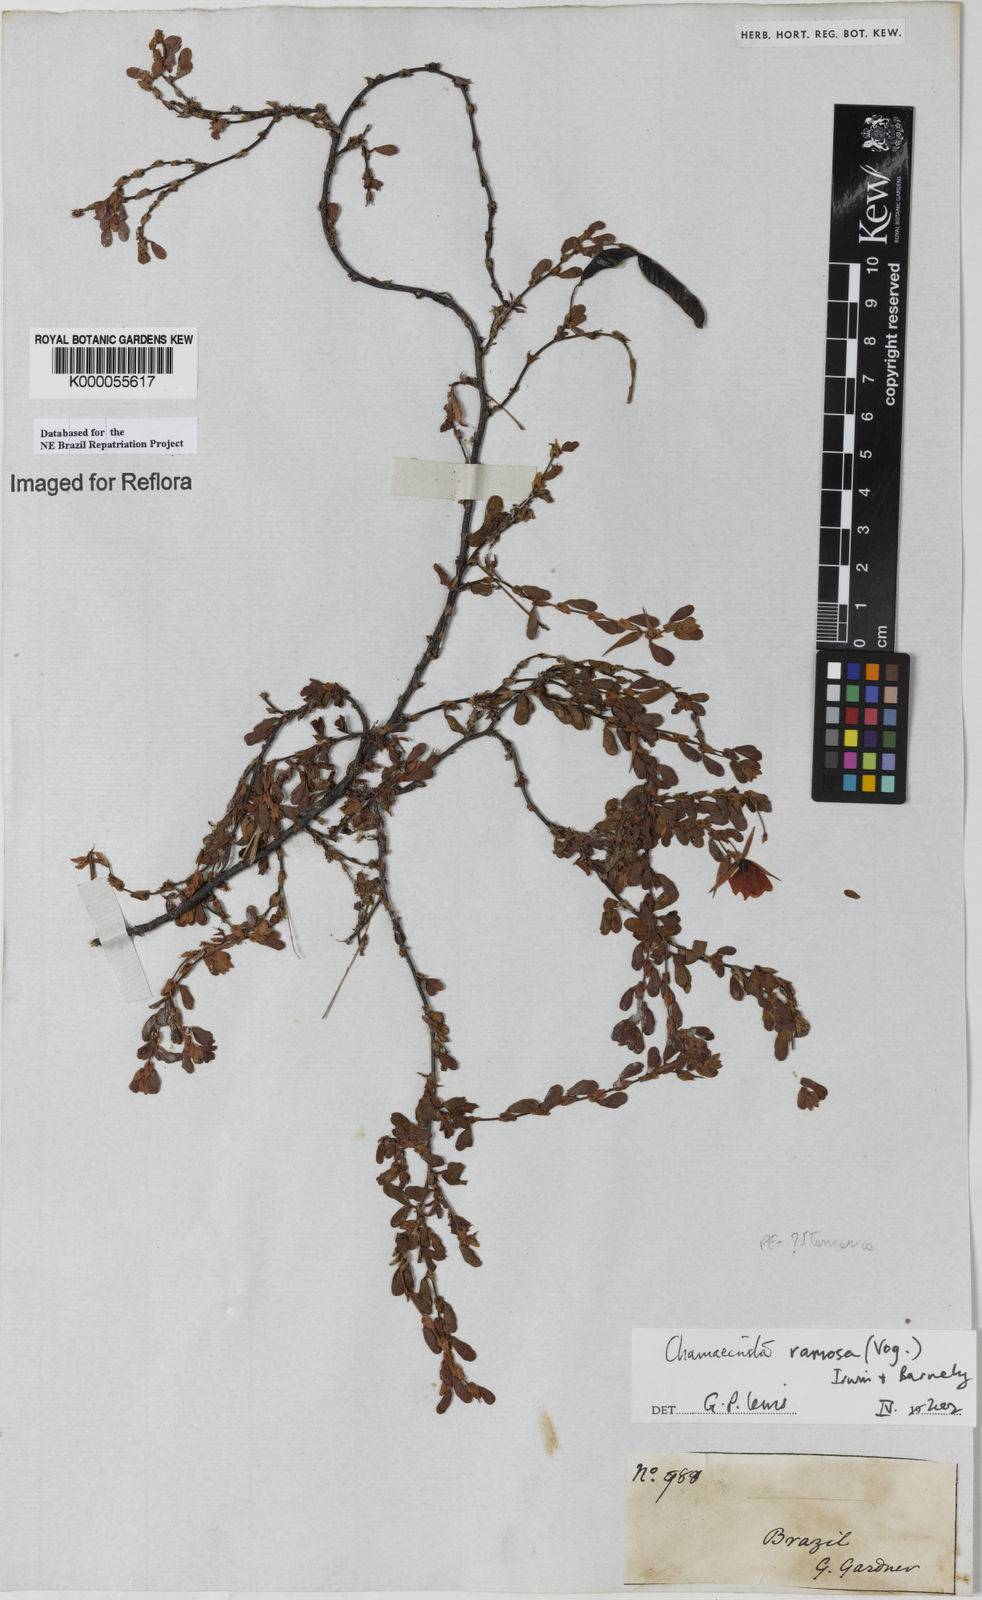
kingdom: Plantae
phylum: Tracheophyta
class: Magnoliopsida
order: Fabales
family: Fabaceae
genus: Chamaecrista
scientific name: Chamaecrista ramosa
